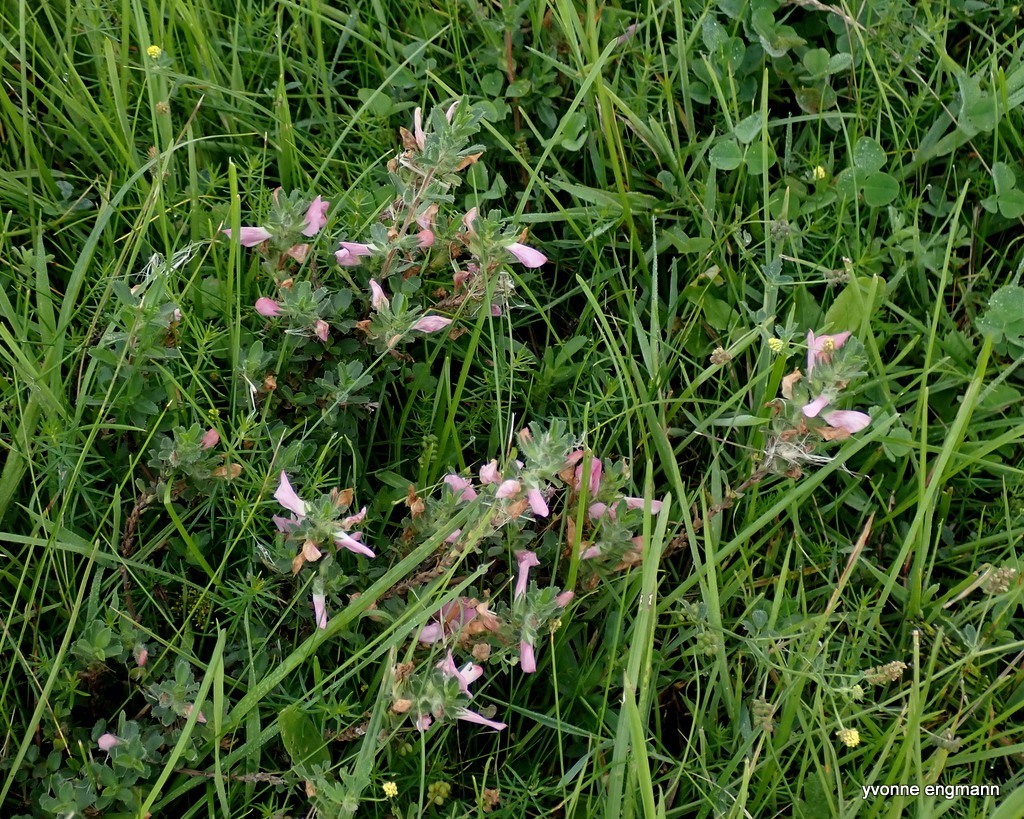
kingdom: Plantae
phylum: Tracheophyta
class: Magnoliopsida
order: Fabales
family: Fabaceae
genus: Ononis
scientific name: Ononis spinosa
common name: Mark-krageklo
